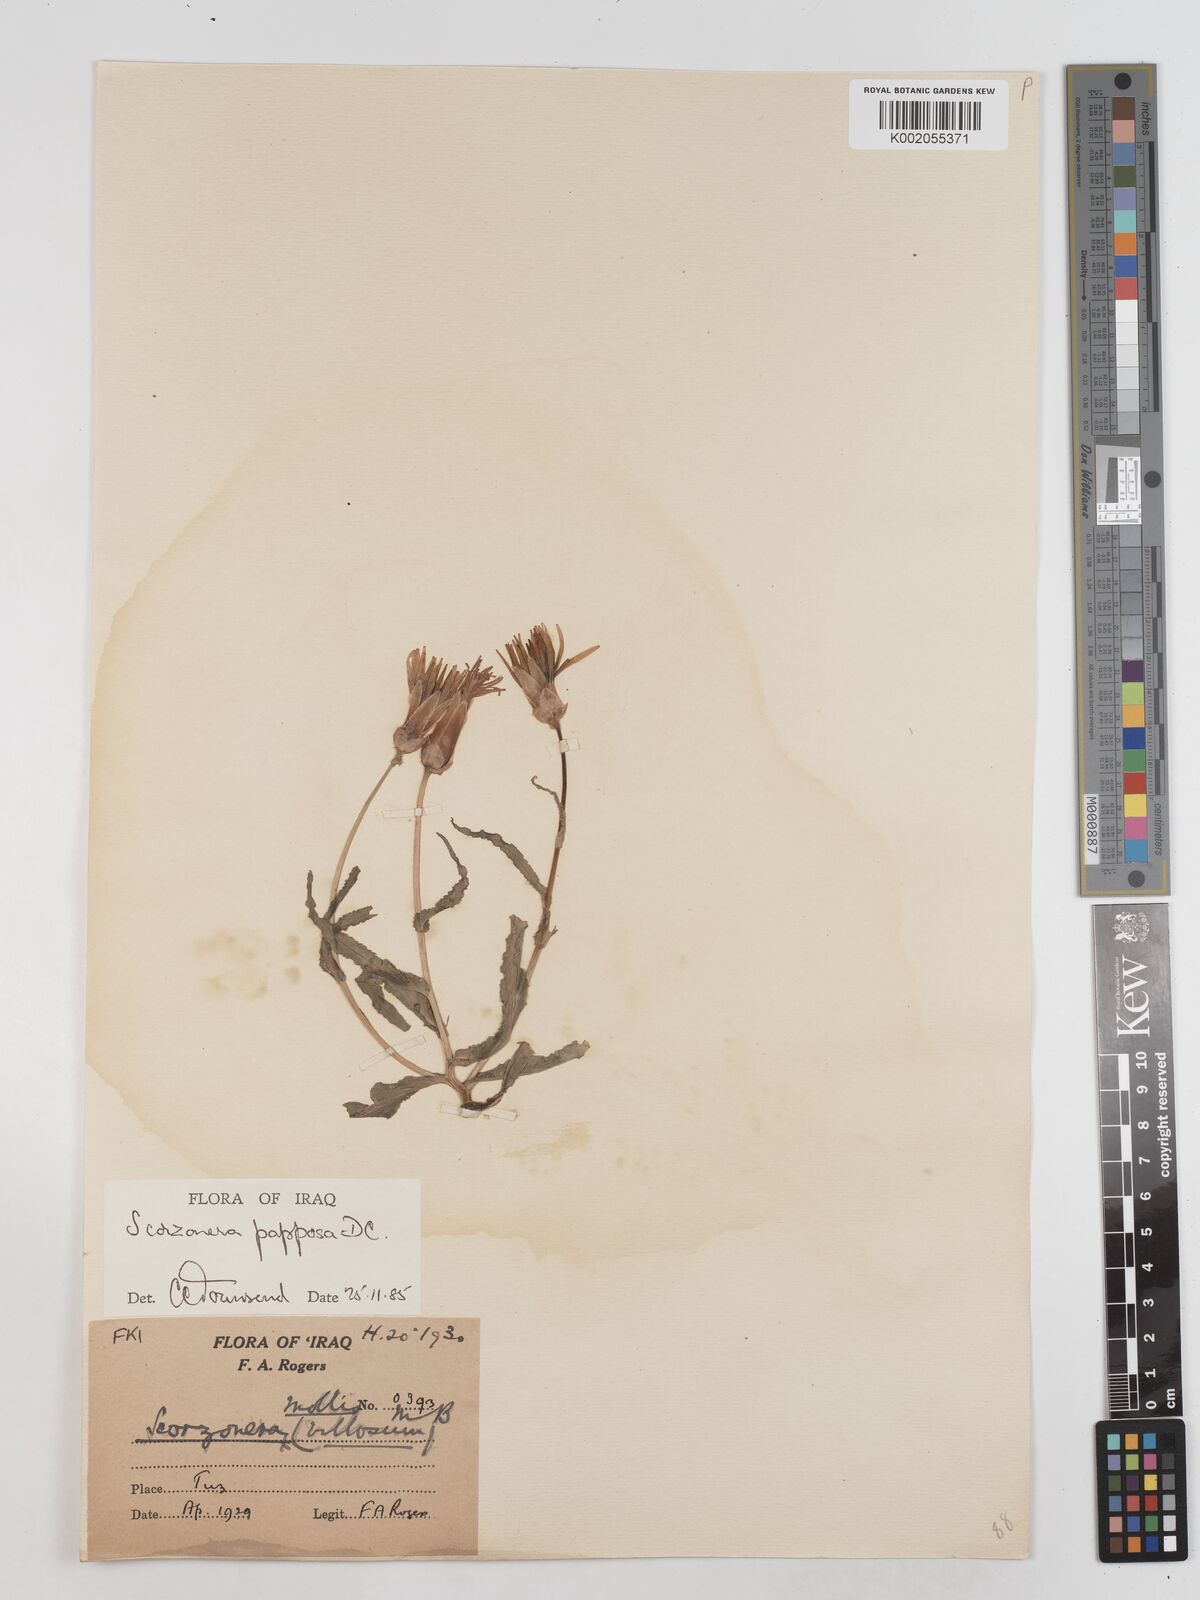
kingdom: Plantae
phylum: Tracheophyta
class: Magnoliopsida
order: Asterales
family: Asteraceae
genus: Pseudopodospermum
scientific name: Pseudopodospermum papposum
